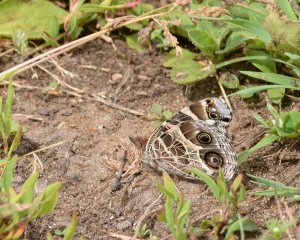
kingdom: Animalia
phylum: Arthropoda
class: Insecta
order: Lepidoptera
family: Nymphalidae
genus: Vanessa
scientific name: Vanessa virginiensis
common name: American Lady
